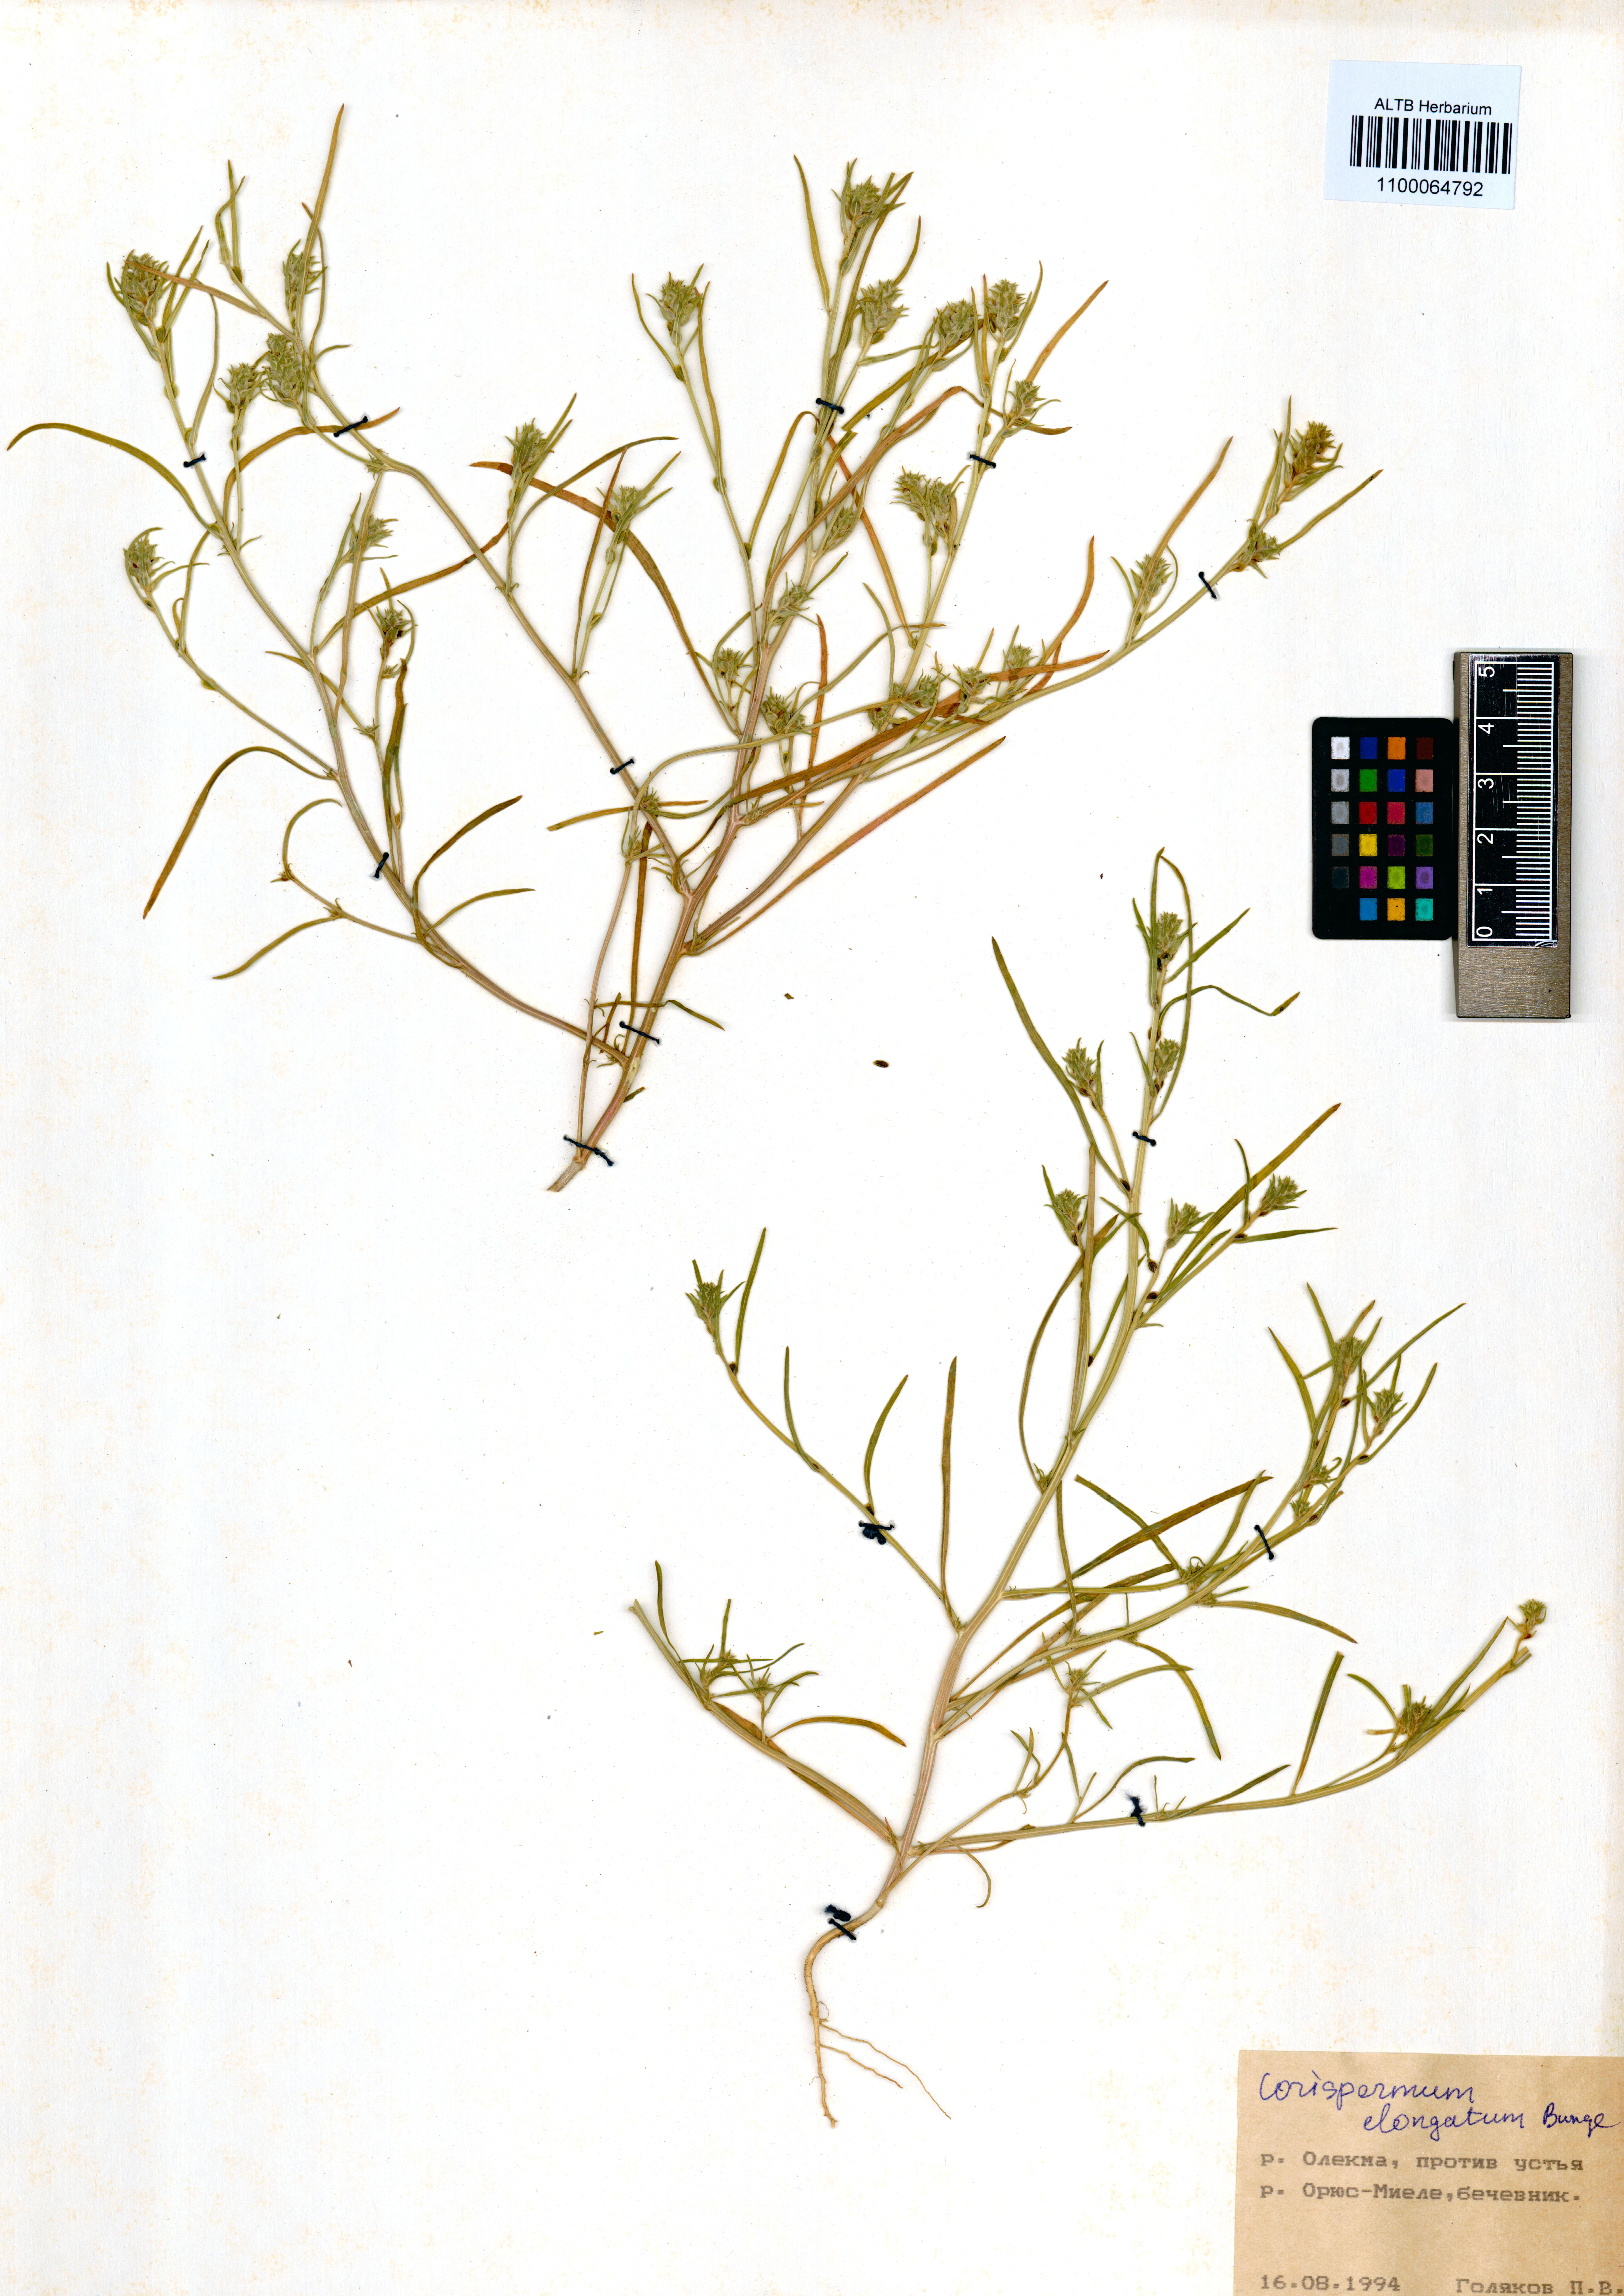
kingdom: Plantae
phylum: Tracheophyta
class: Magnoliopsida
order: Caryophyllales
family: Amaranthaceae
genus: Corispermum
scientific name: Corispermum elongatum
